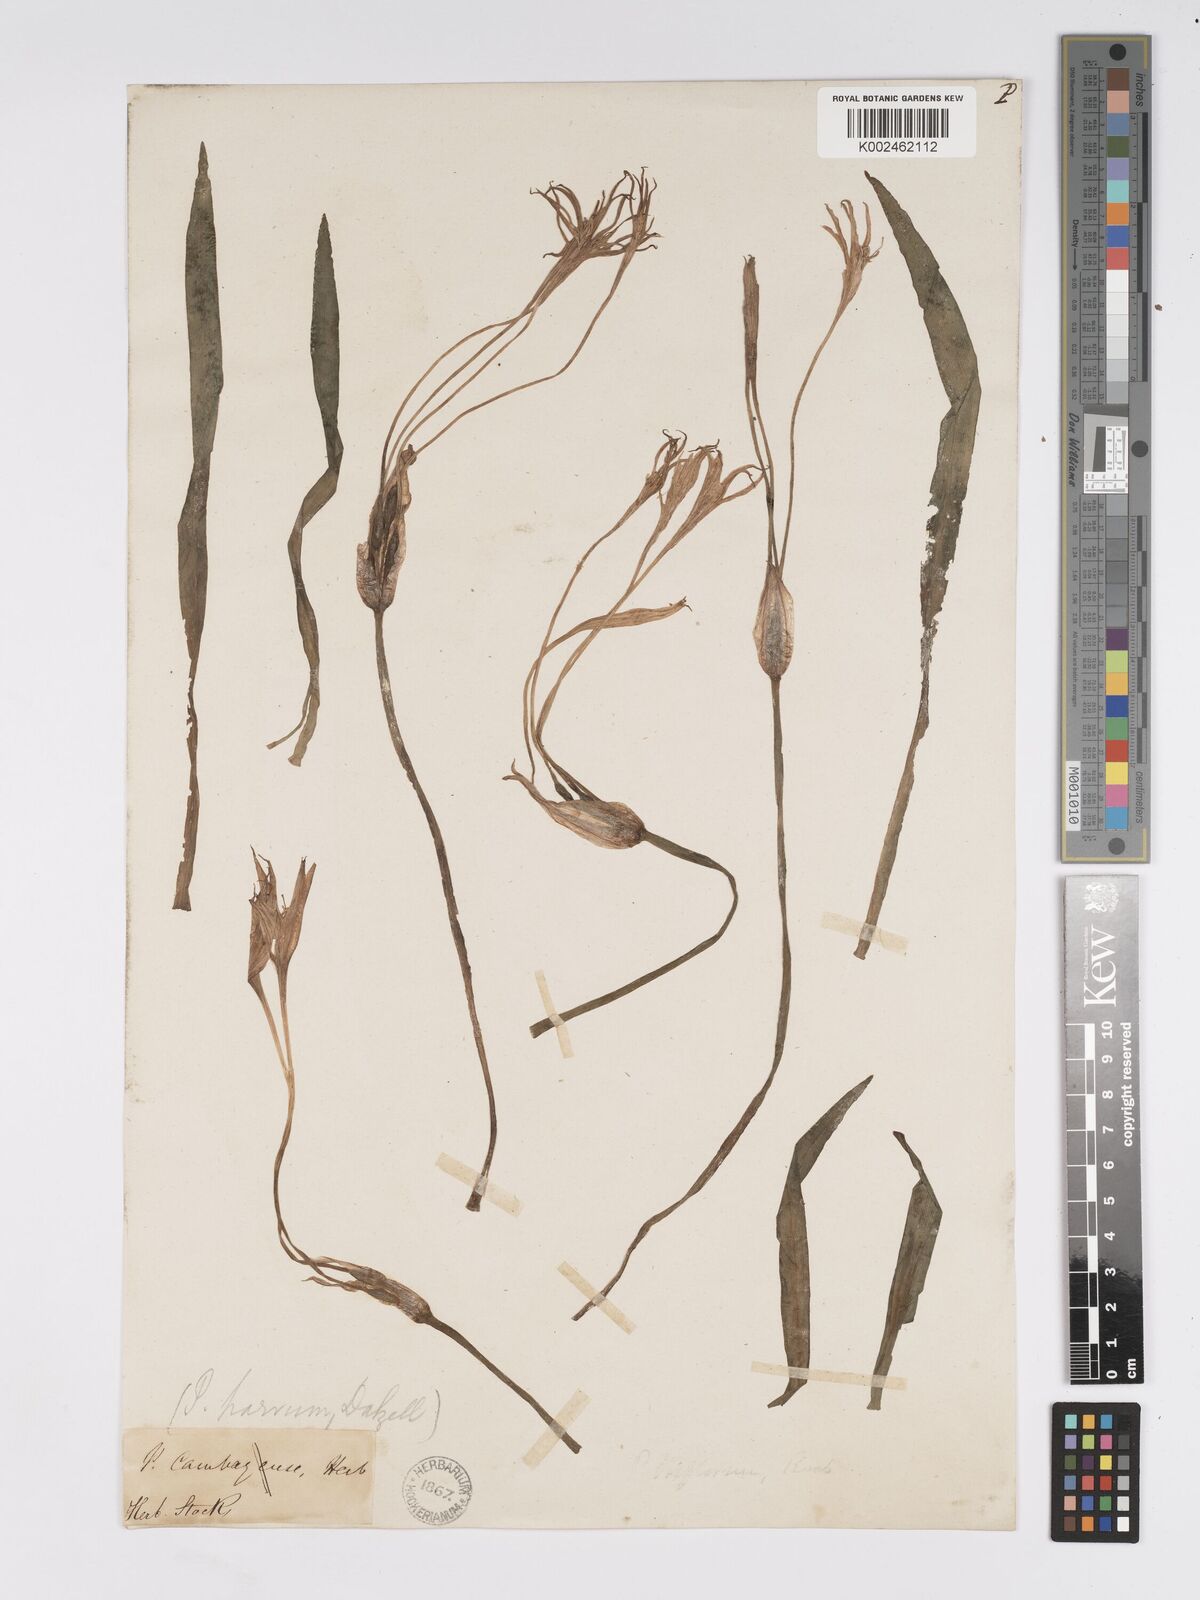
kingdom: Plantae
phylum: Tracheophyta
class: Liliopsida
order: Asparagales
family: Amaryllidaceae
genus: Pancratium
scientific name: Pancratium parvum
